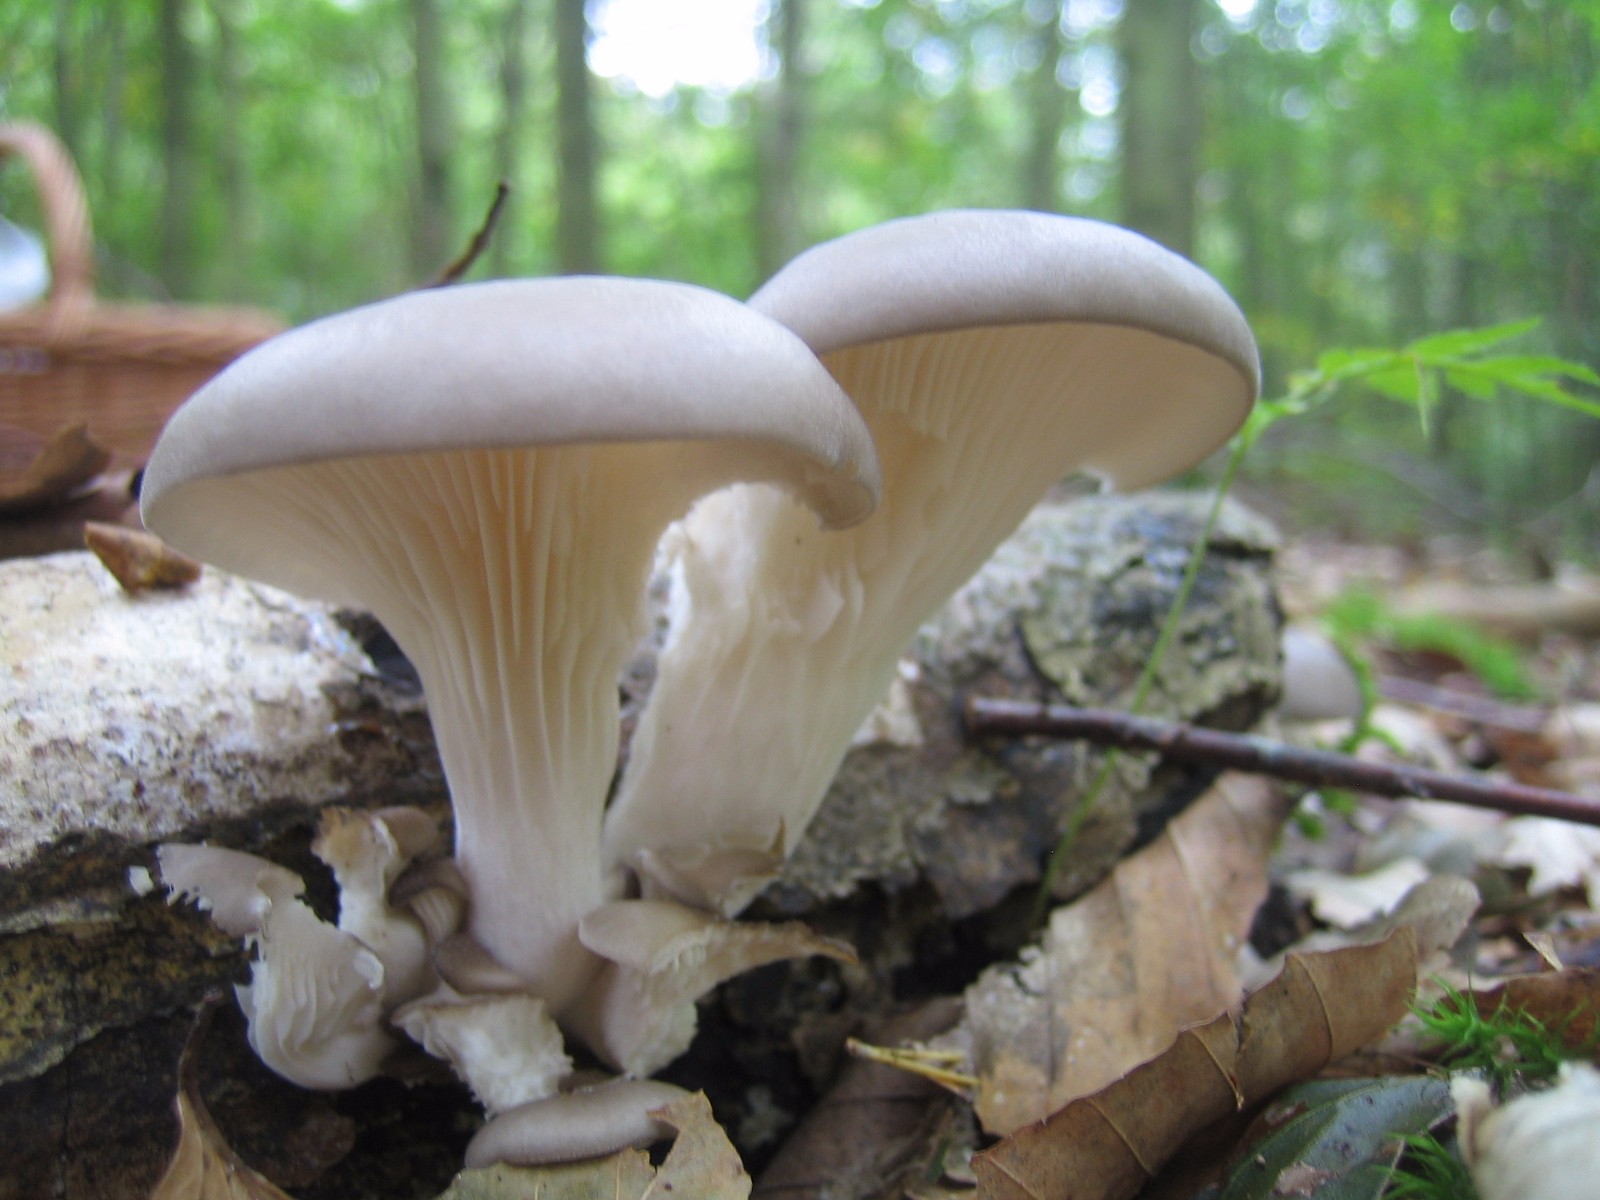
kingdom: Fungi
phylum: Basidiomycota
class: Agaricomycetes
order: Agaricales
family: Pleurotaceae
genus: Pleurotus
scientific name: Pleurotus ostreatus
